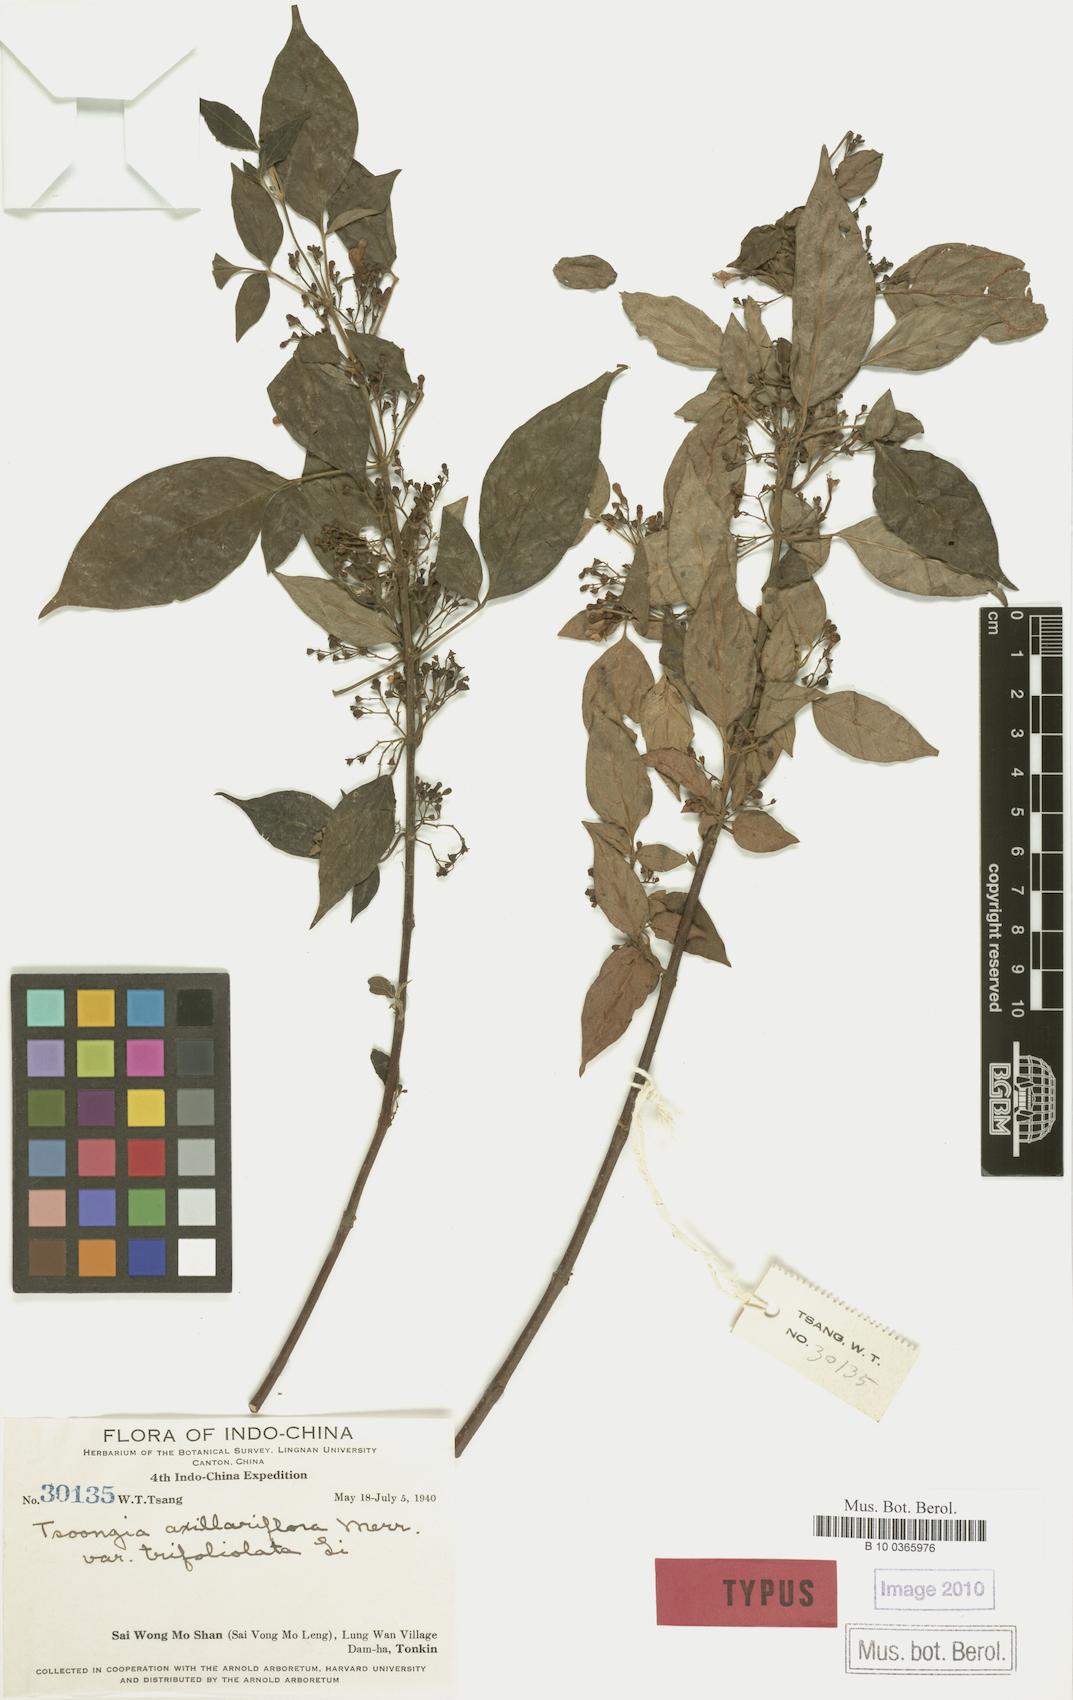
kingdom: Plantae
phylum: Tracheophyta
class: Magnoliopsida
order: Lamiales
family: Lamiaceae
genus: Vitex
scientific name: Vitex axillariflora
